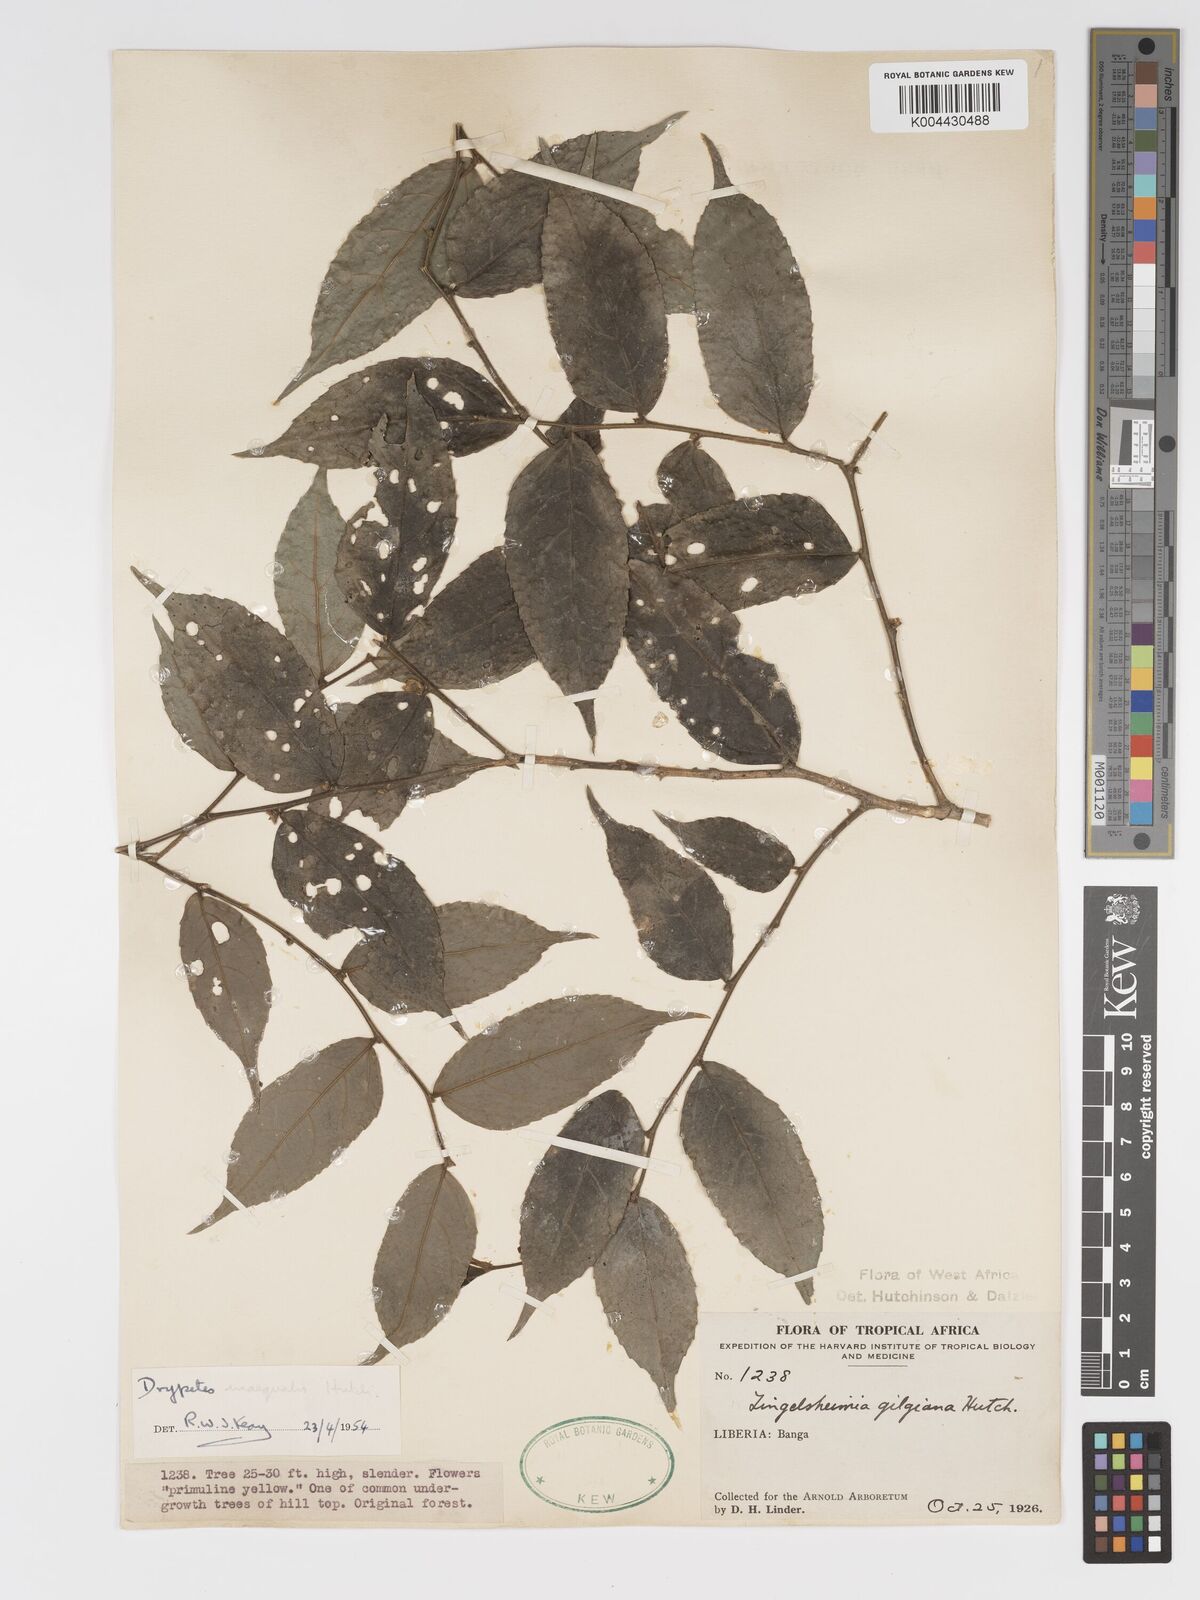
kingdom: Plantae
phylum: Tracheophyta
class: Magnoliopsida
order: Malpighiales
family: Putranjivaceae
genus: Drypetes
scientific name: Drypetes inaequalis
